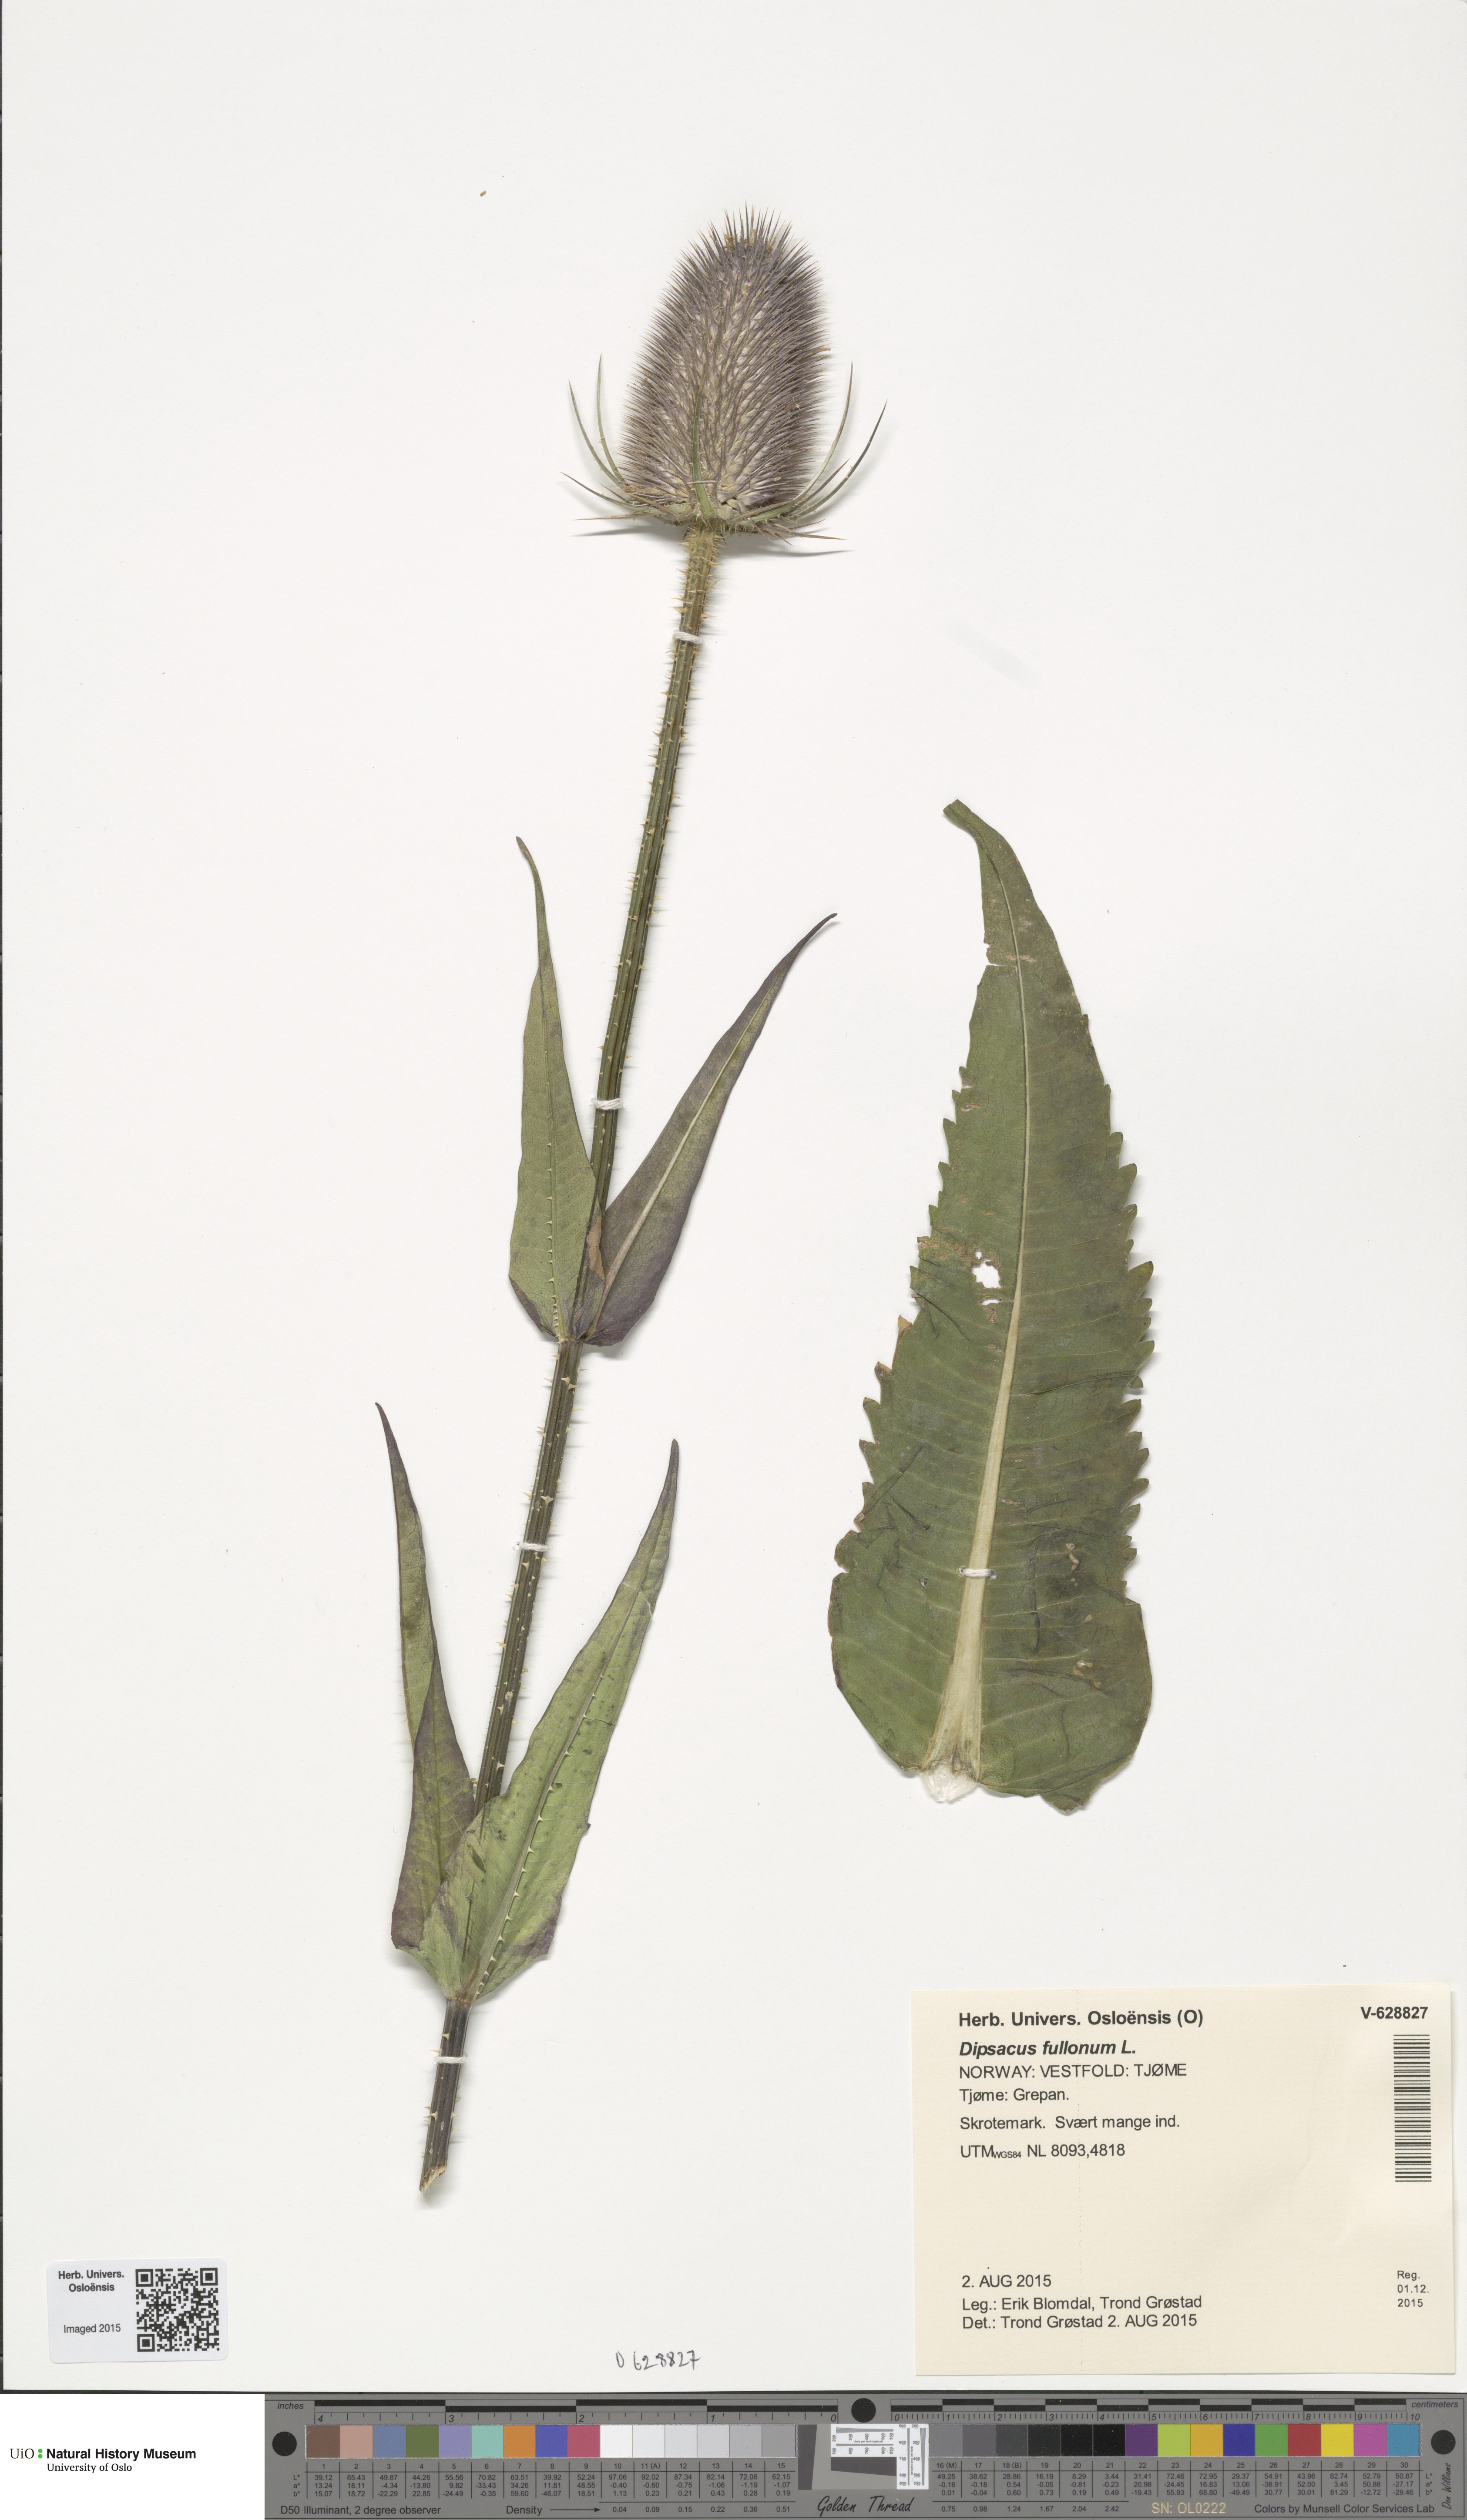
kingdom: Plantae
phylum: Tracheophyta
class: Magnoliopsida
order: Dipsacales
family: Caprifoliaceae
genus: Dipsacus
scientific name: Dipsacus fullonum
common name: Teasel
